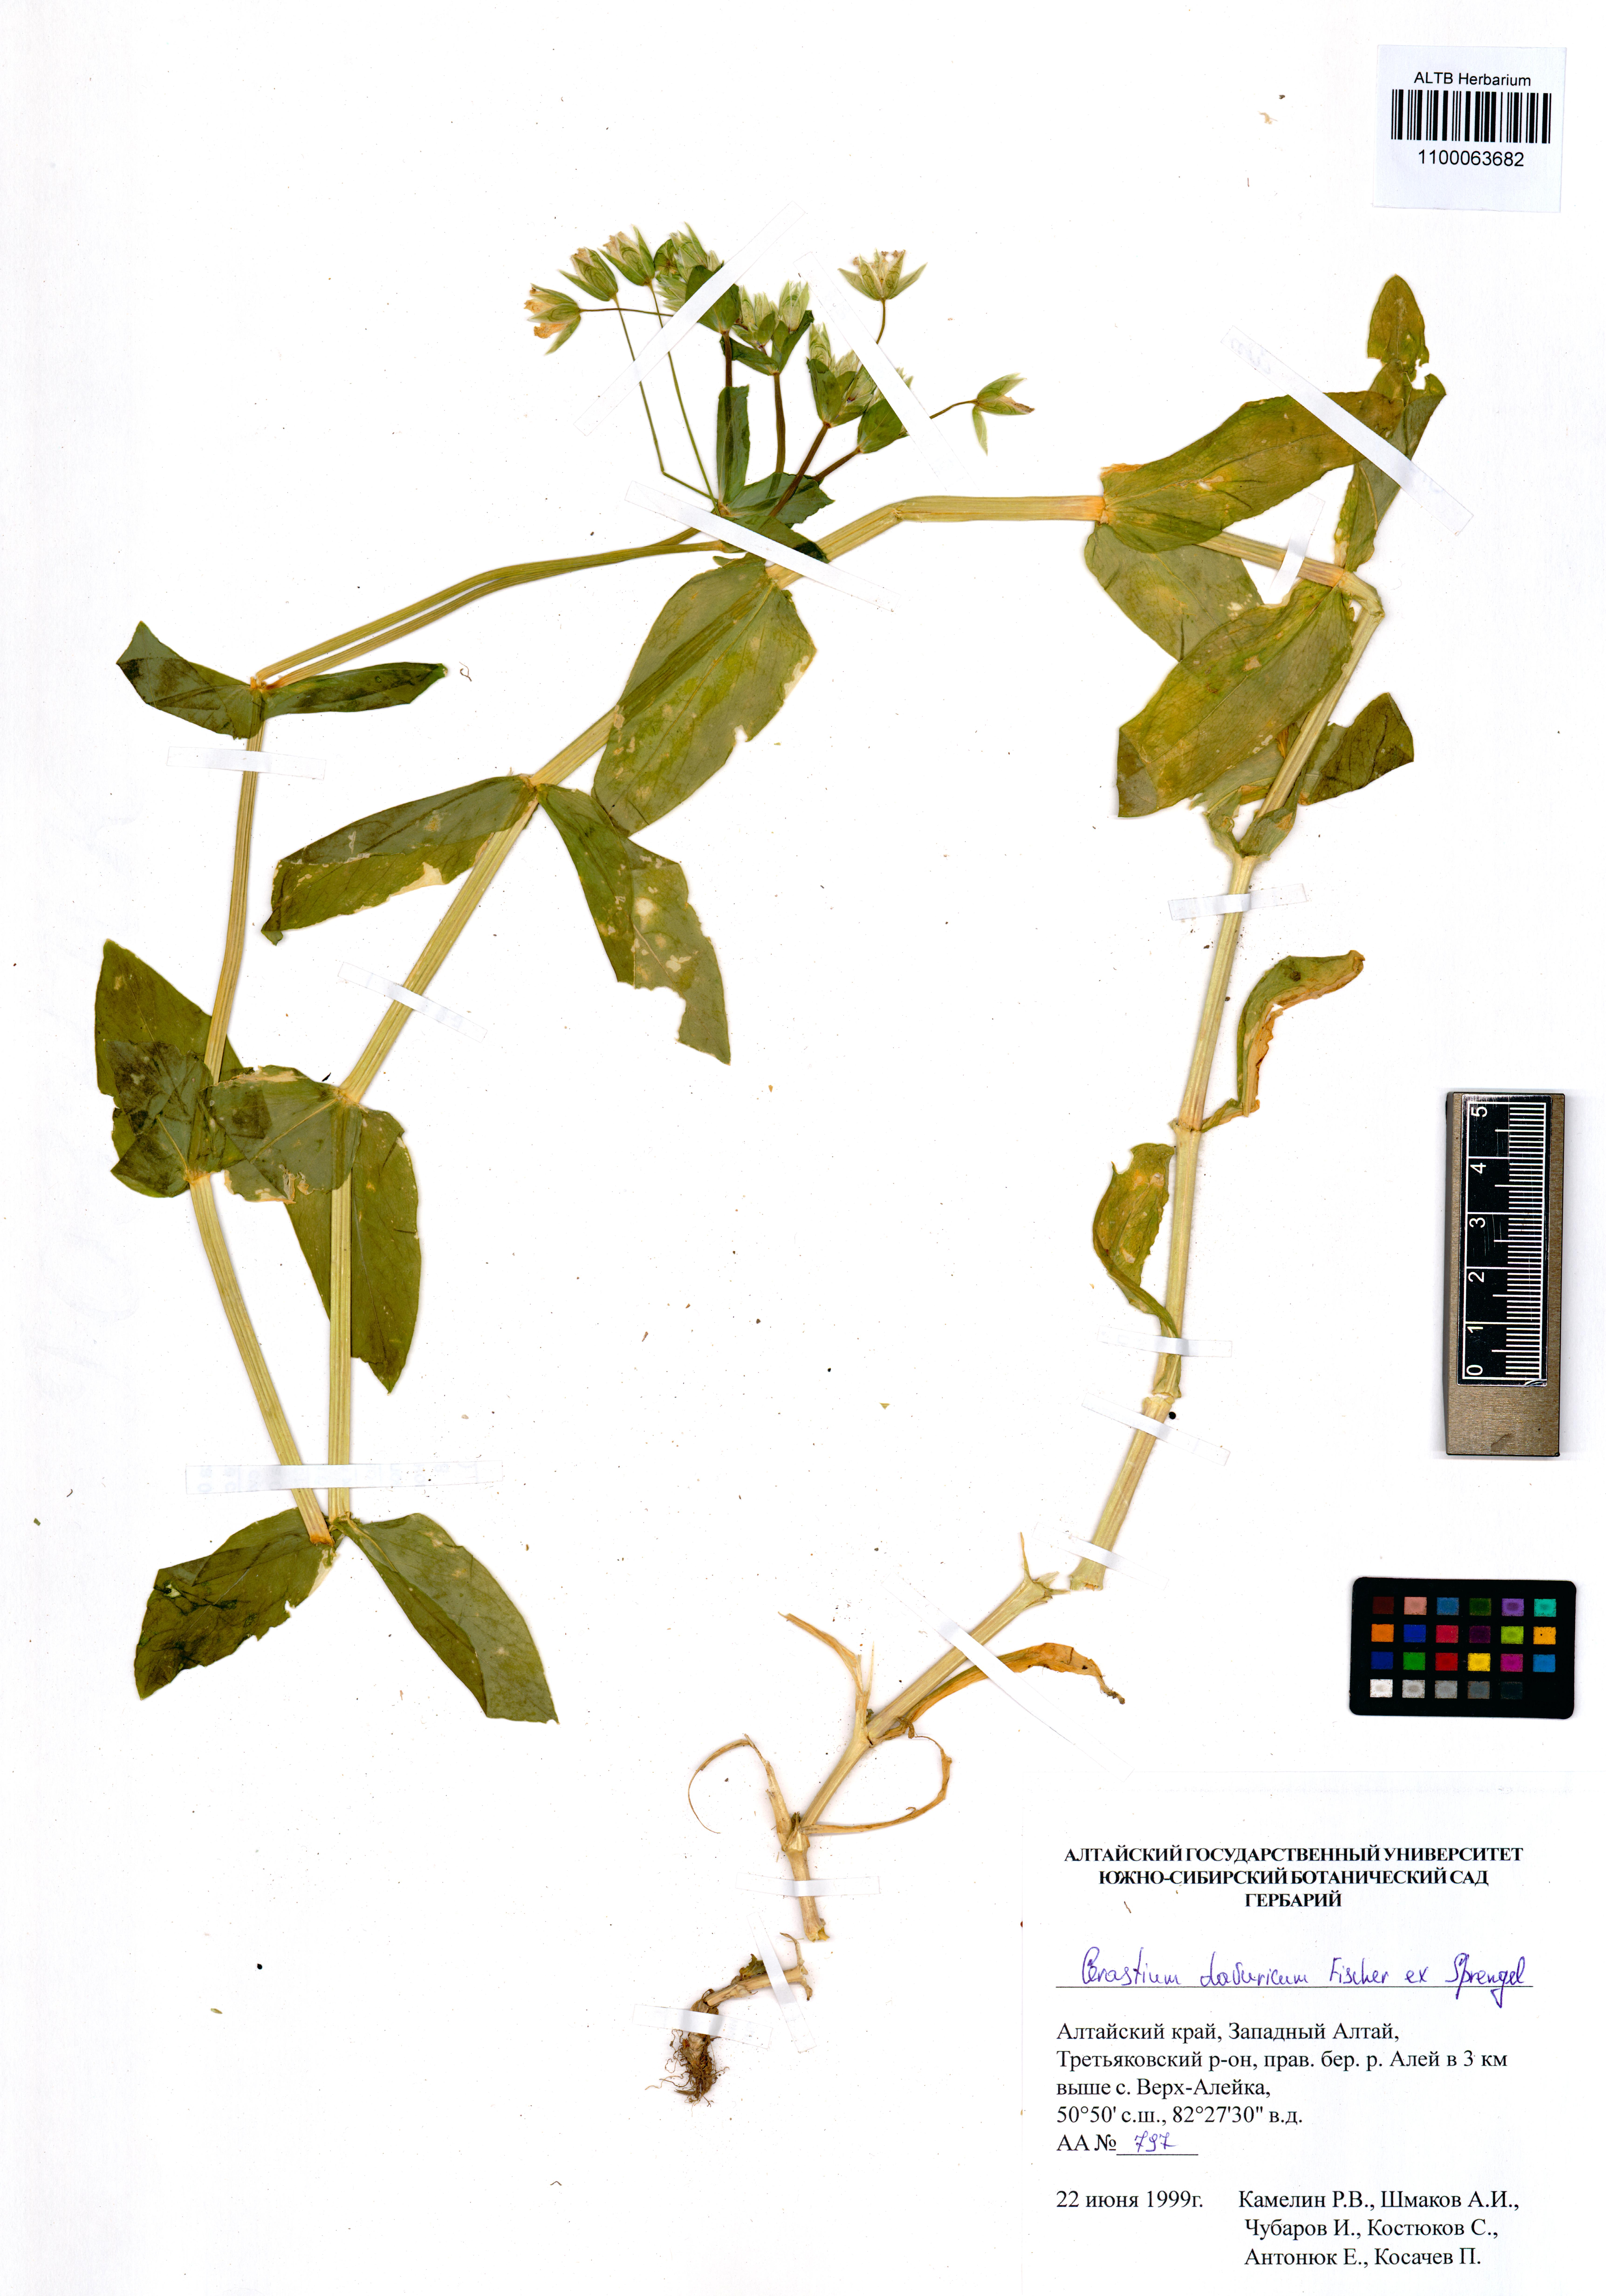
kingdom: Plantae
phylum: Tracheophyta
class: Magnoliopsida
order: Caryophyllales
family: Caryophyllaceae
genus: Dichodon
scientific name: Dichodon davuricum
